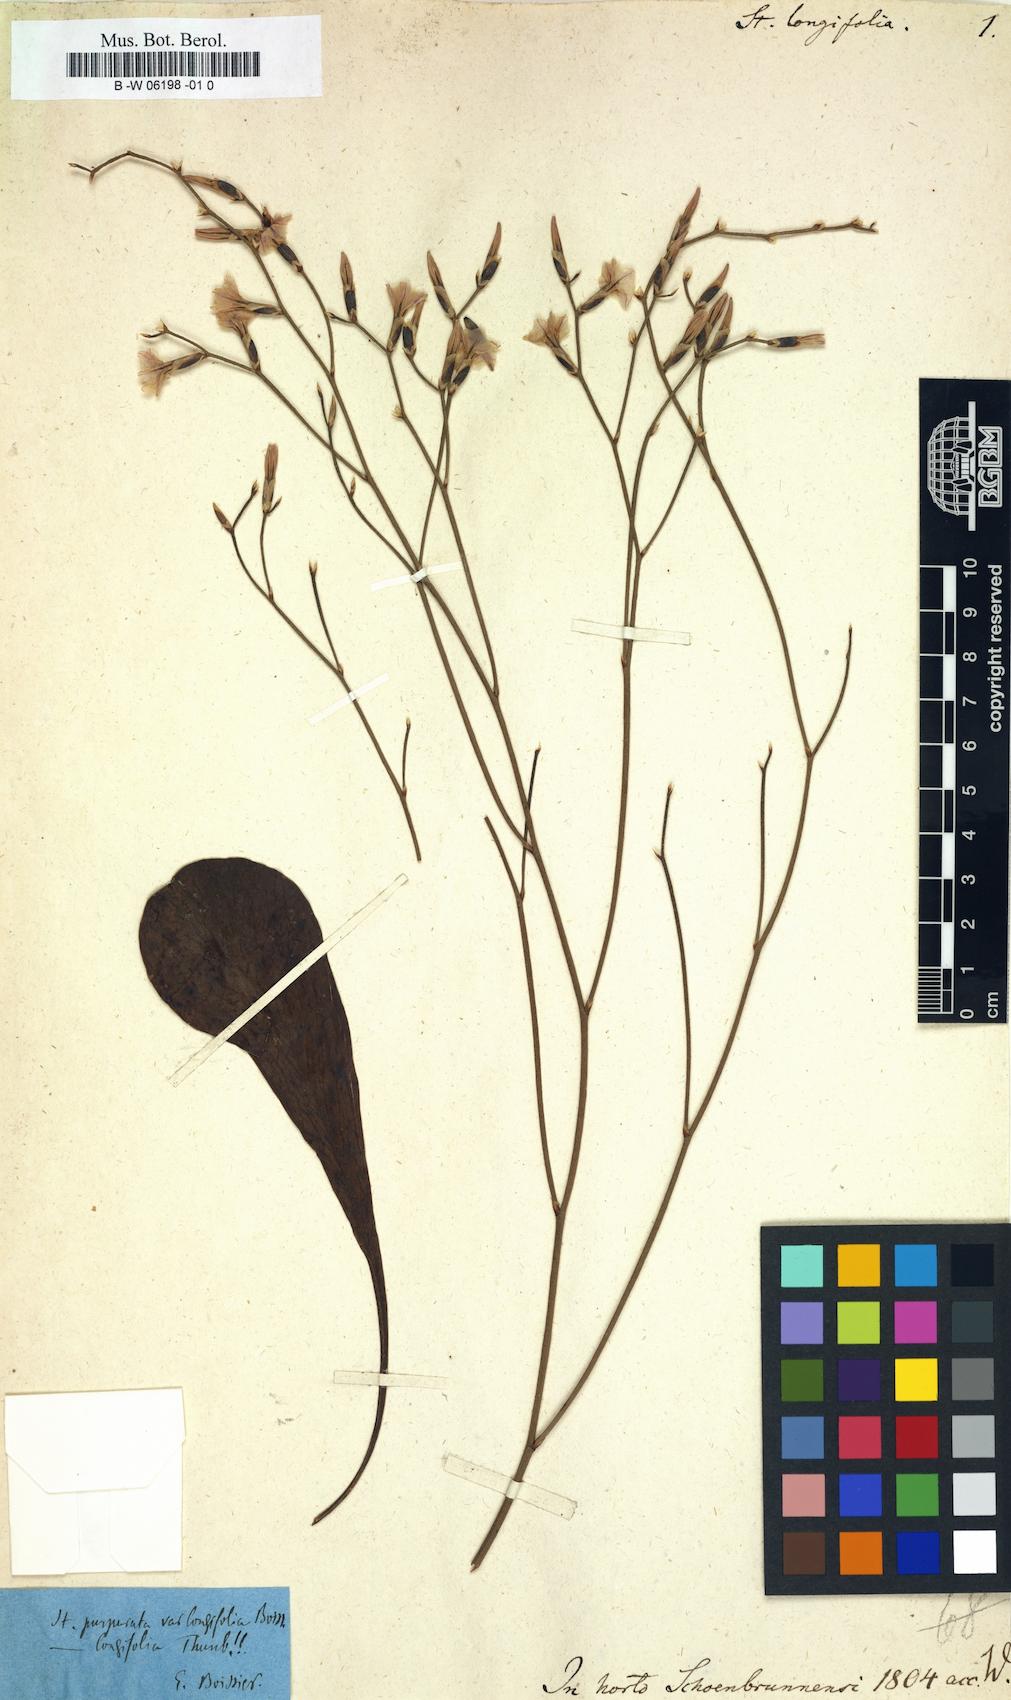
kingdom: Plantae
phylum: Tracheophyta
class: Magnoliopsida
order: Caryophyllales
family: Plumbaginaceae
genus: Limonium
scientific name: Limonium longifolium
